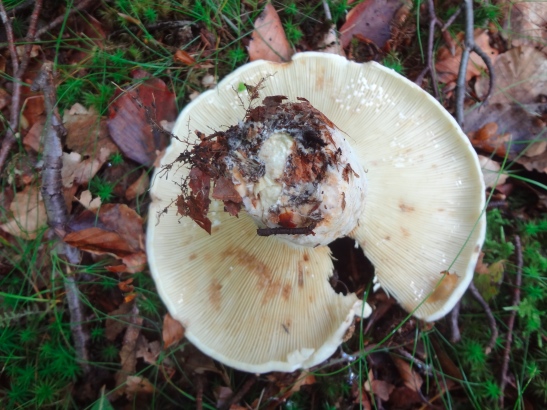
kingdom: Fungi
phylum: Basidiomycota
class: Agaricomycetes
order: Russulales
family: Russulaceae
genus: Lactifluus
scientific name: Lactifluus vellereus
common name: hvidfiltet mælkehat
